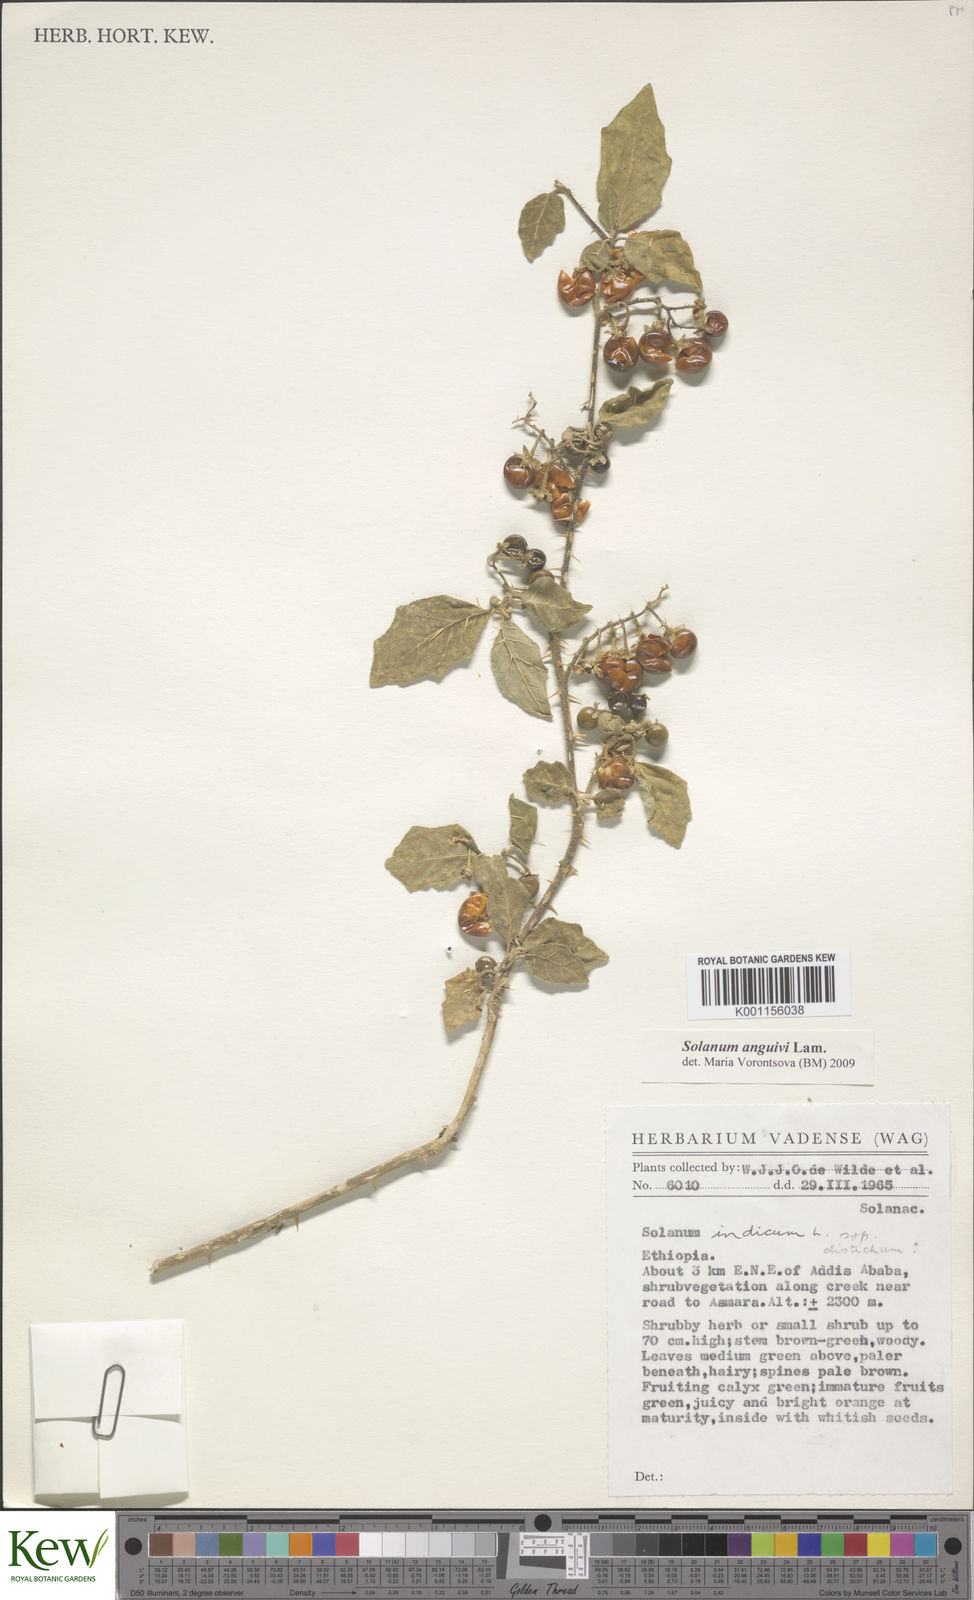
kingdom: Plantae
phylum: Tracheophyta
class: Magnoliopsida
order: Solanales
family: Solanaceae
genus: Solanum
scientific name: Solanum anguivi
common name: Forest bitterberry
